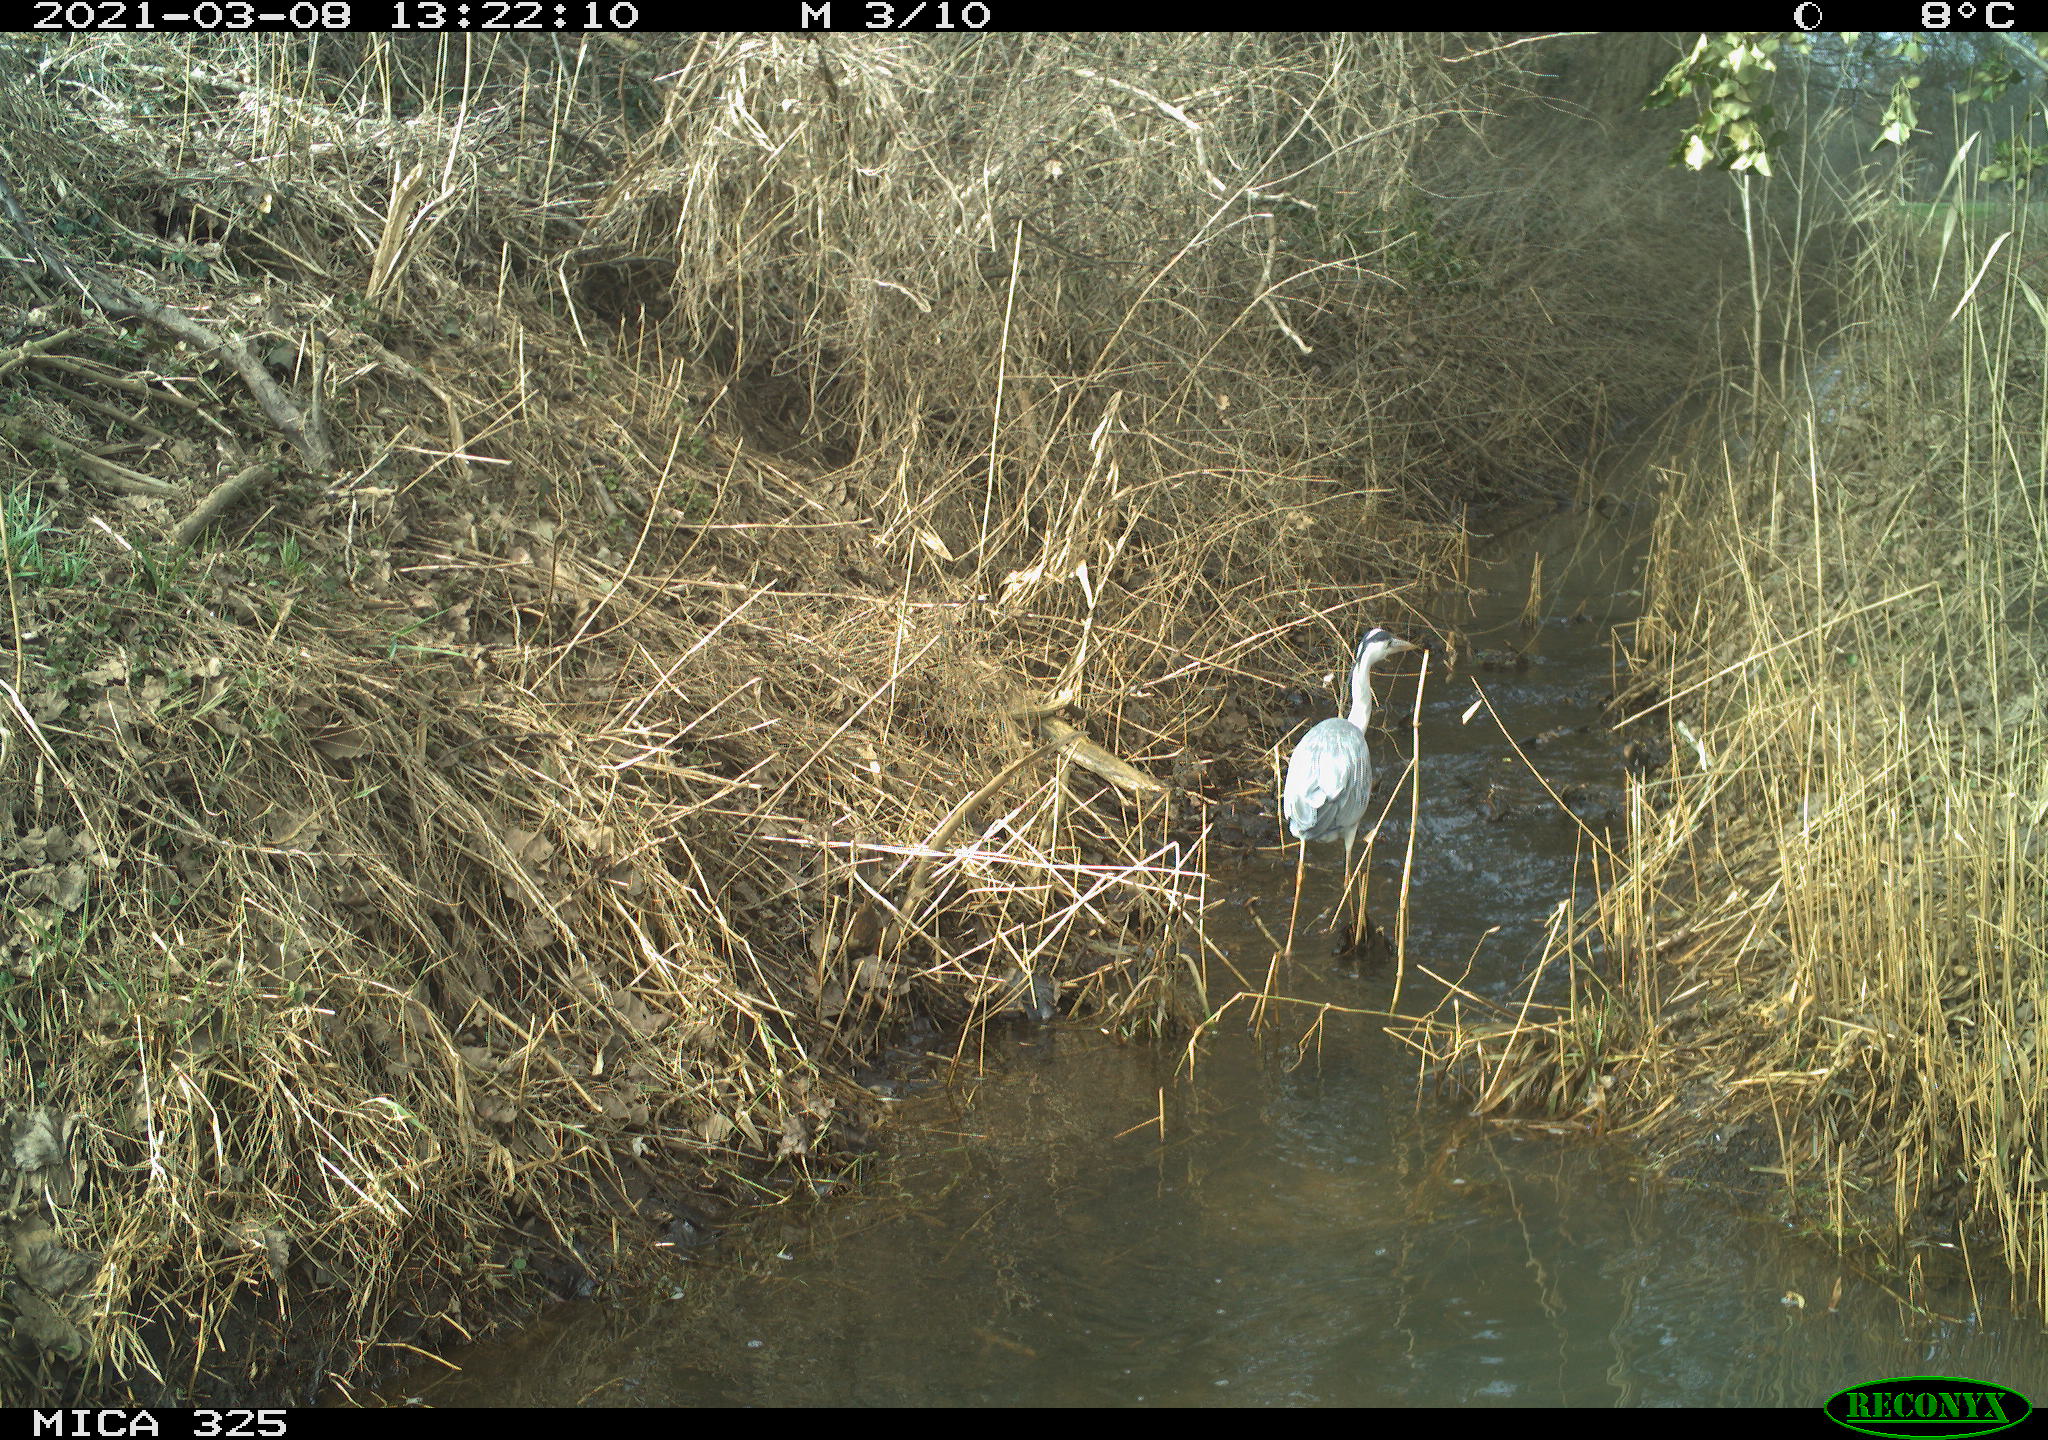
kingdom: Animalia
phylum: Chordata
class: Aves
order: Pelecaniformes
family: Ardeidae
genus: Ardea
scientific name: Ardea cinerea
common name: Grey heron
